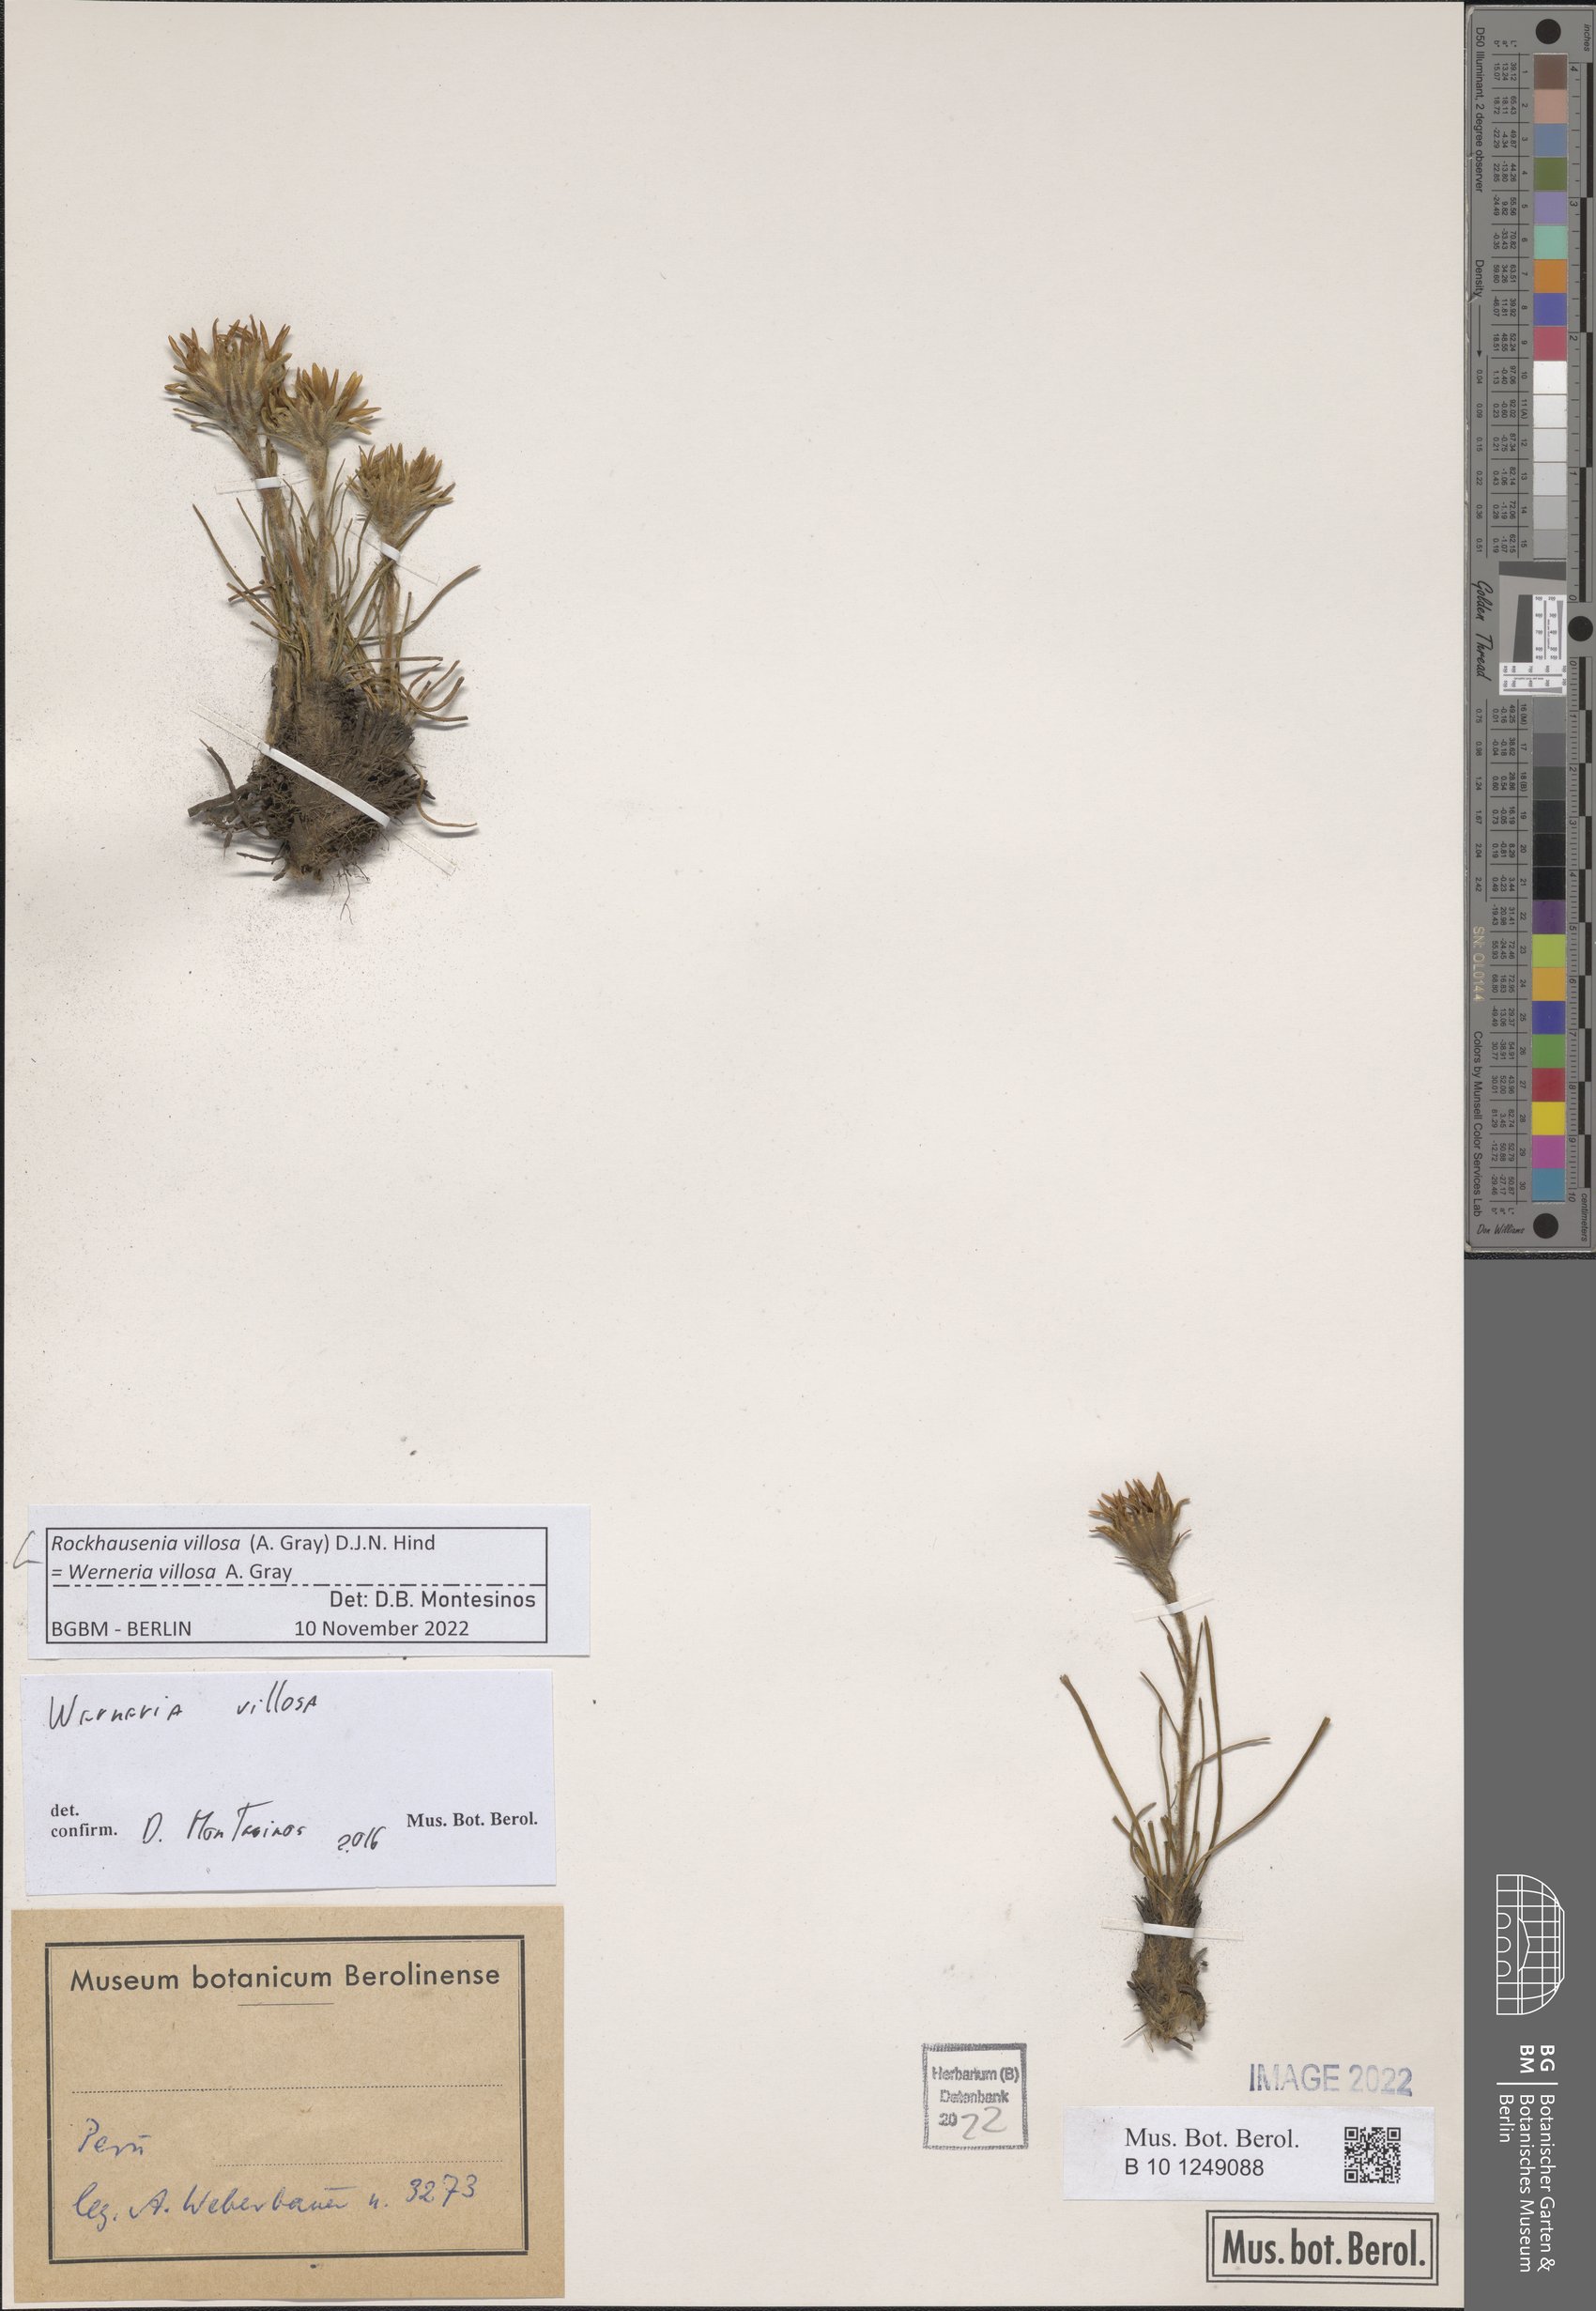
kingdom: Plantae
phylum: Tracheophyta
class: Magnoliopsida
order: Asterales
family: Asteraceae
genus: Rockhausenia
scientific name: Rockhausenia villosa
